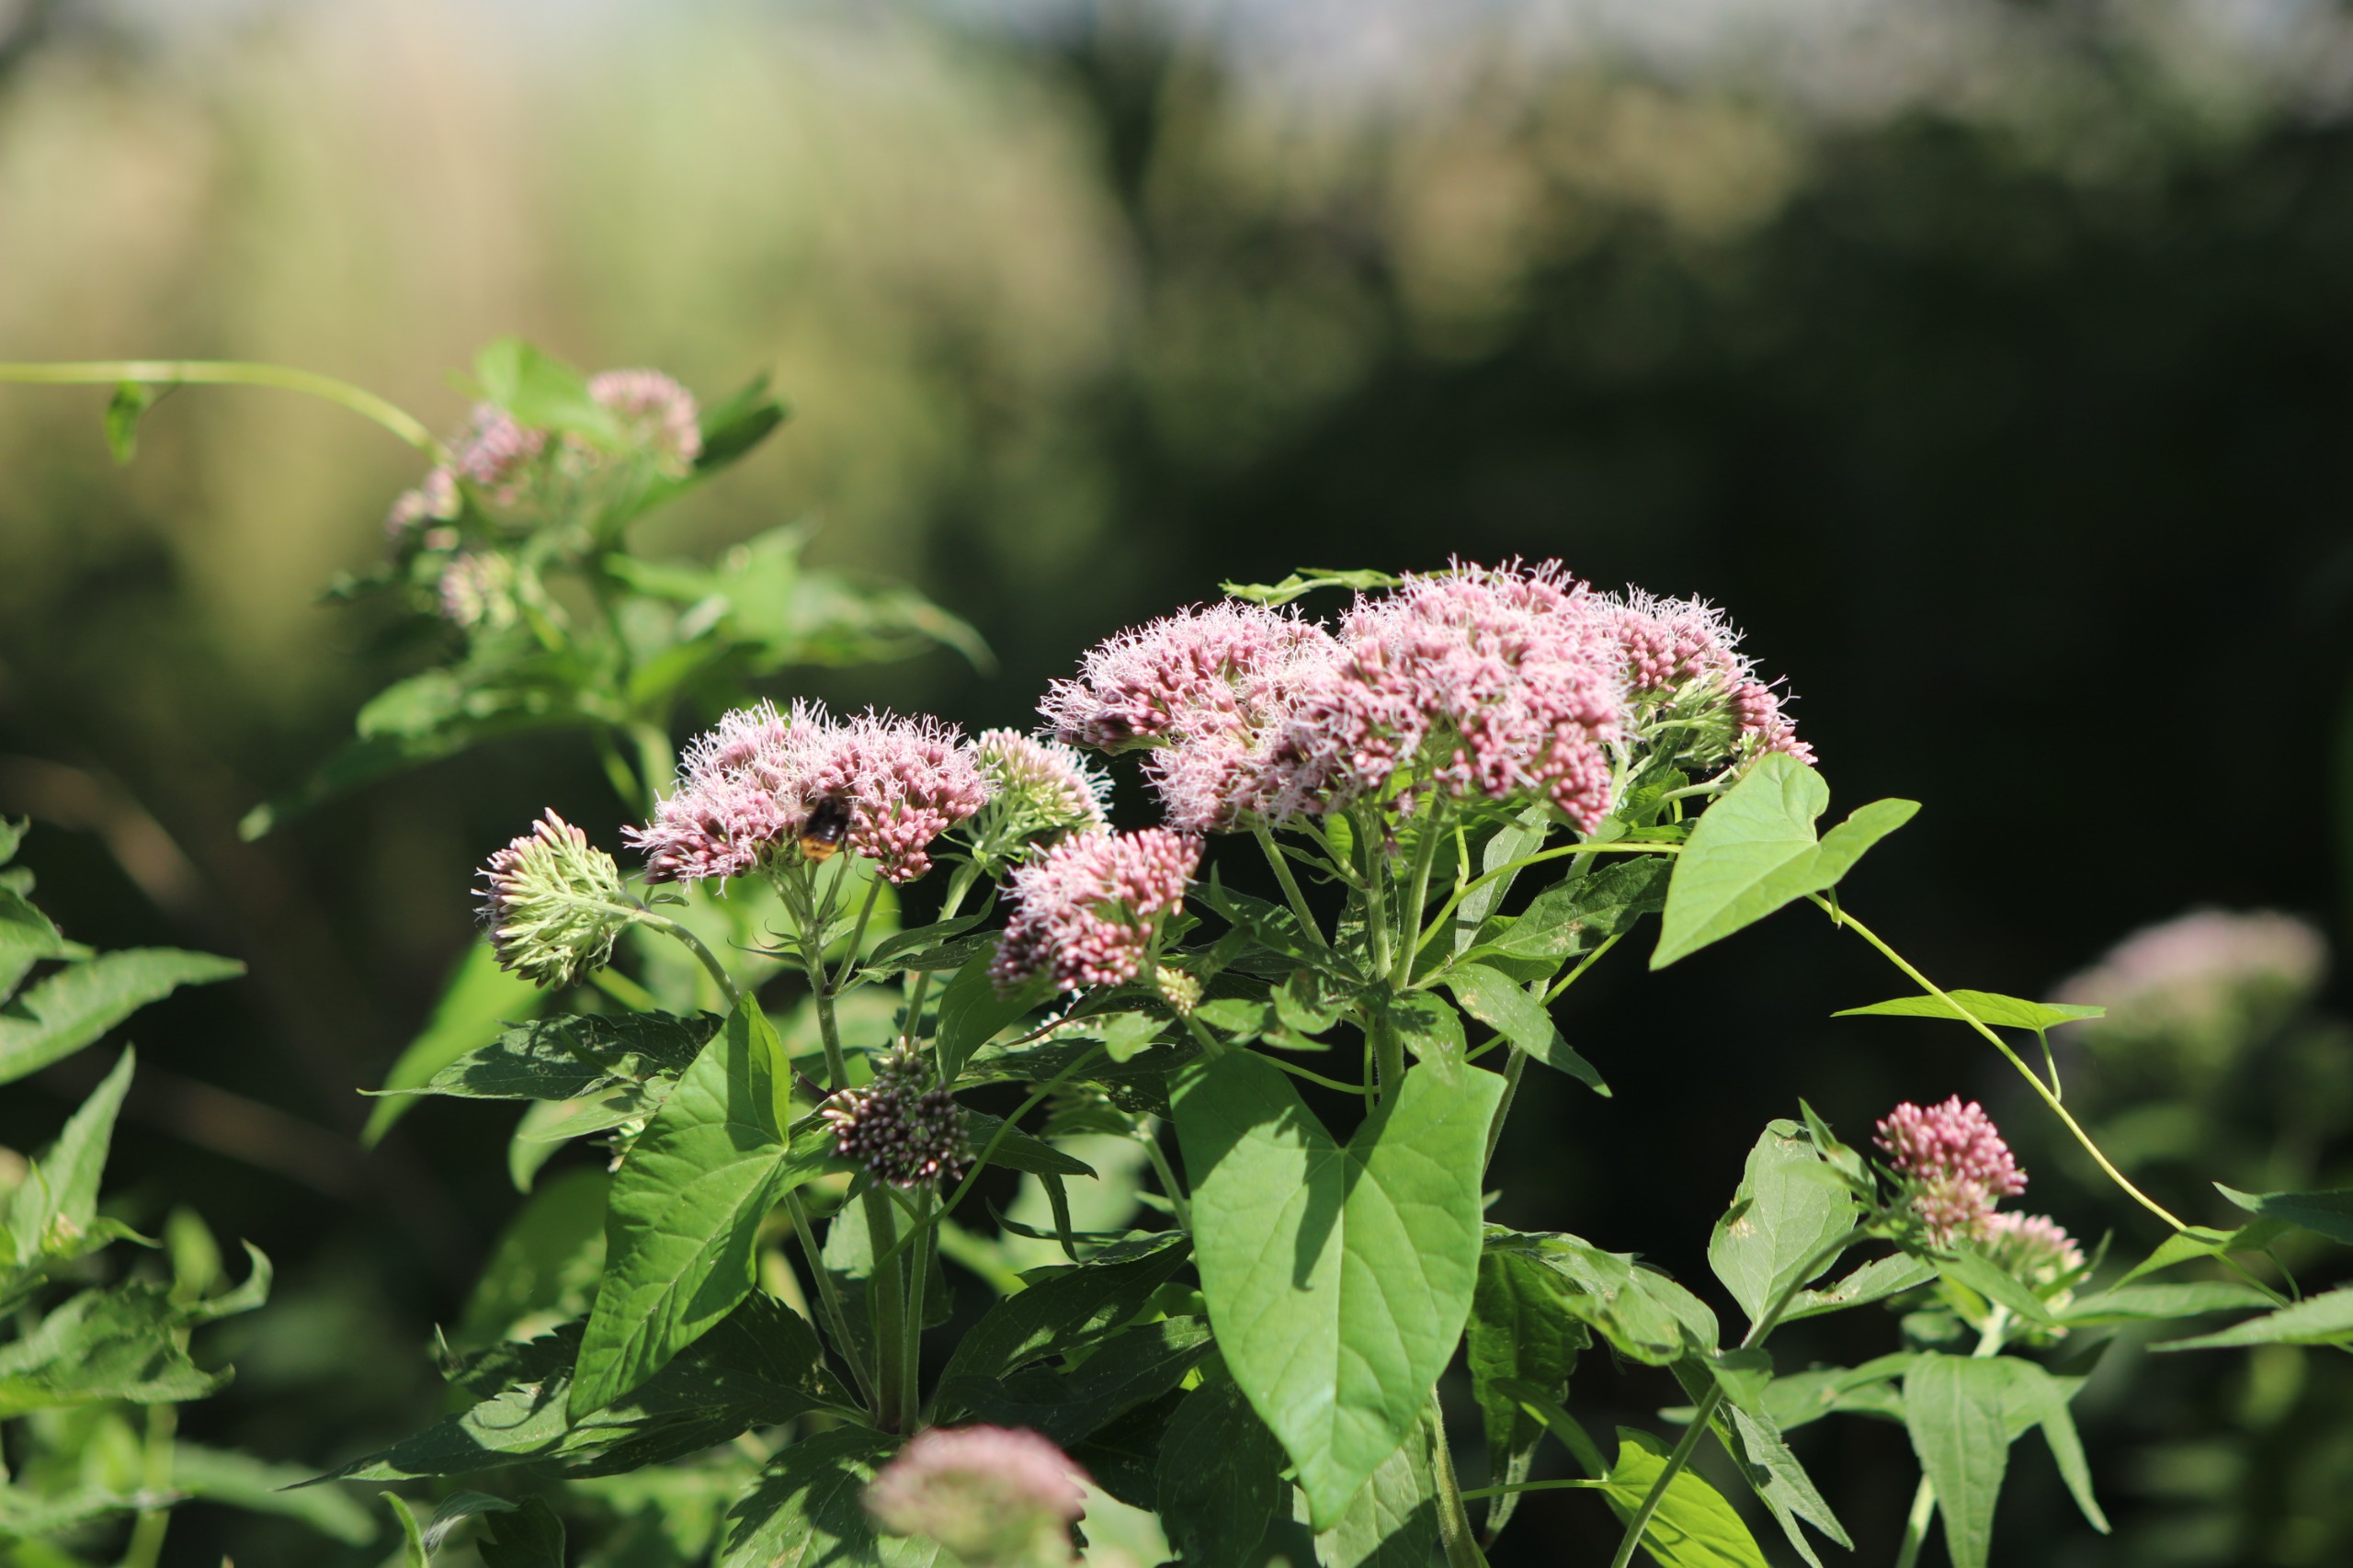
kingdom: Plantae
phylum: Tracheophyta
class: Magnoliopsida
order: Asterales
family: Asteraceae
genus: Eupatorium
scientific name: Eupatorium cannabinum
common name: Hjortetrøst
